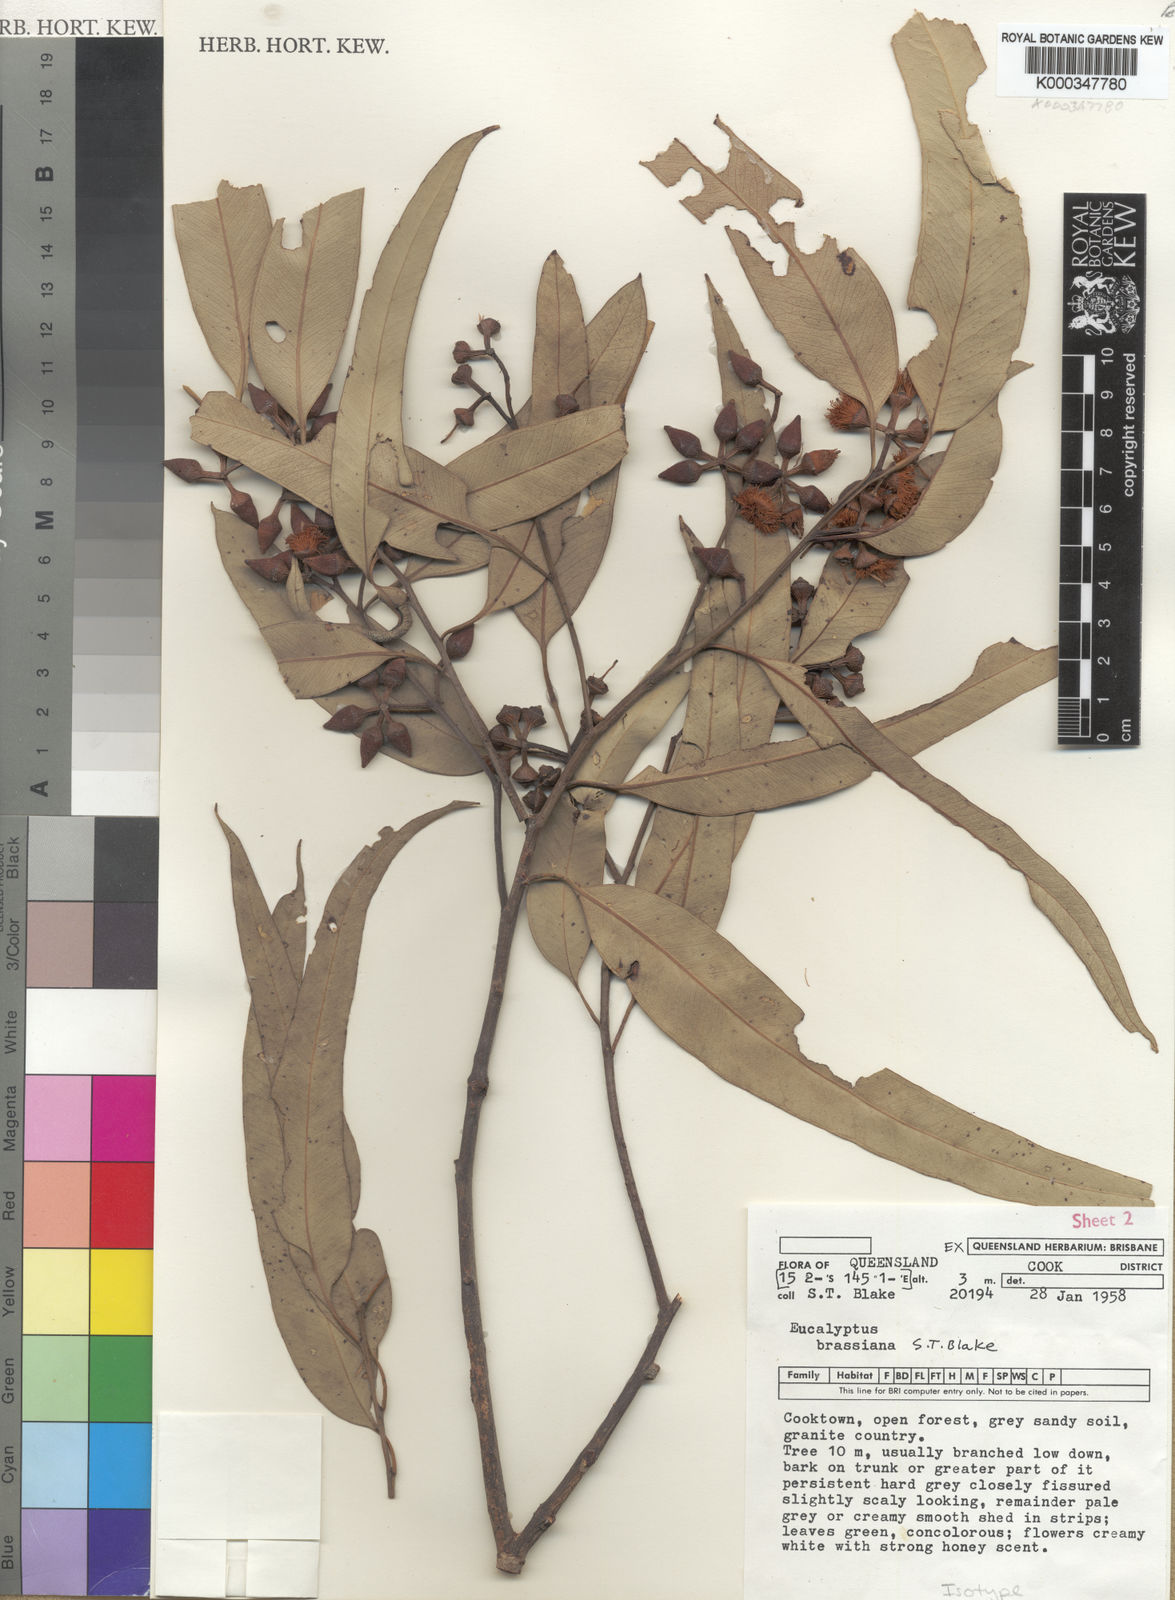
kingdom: Plantae
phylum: Tracheophyta
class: Magnoliopsida
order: Myrtales
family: Myrtaceae
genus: Eucalyptus
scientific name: Eucalyptus brassiana
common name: Cape-york-gum
